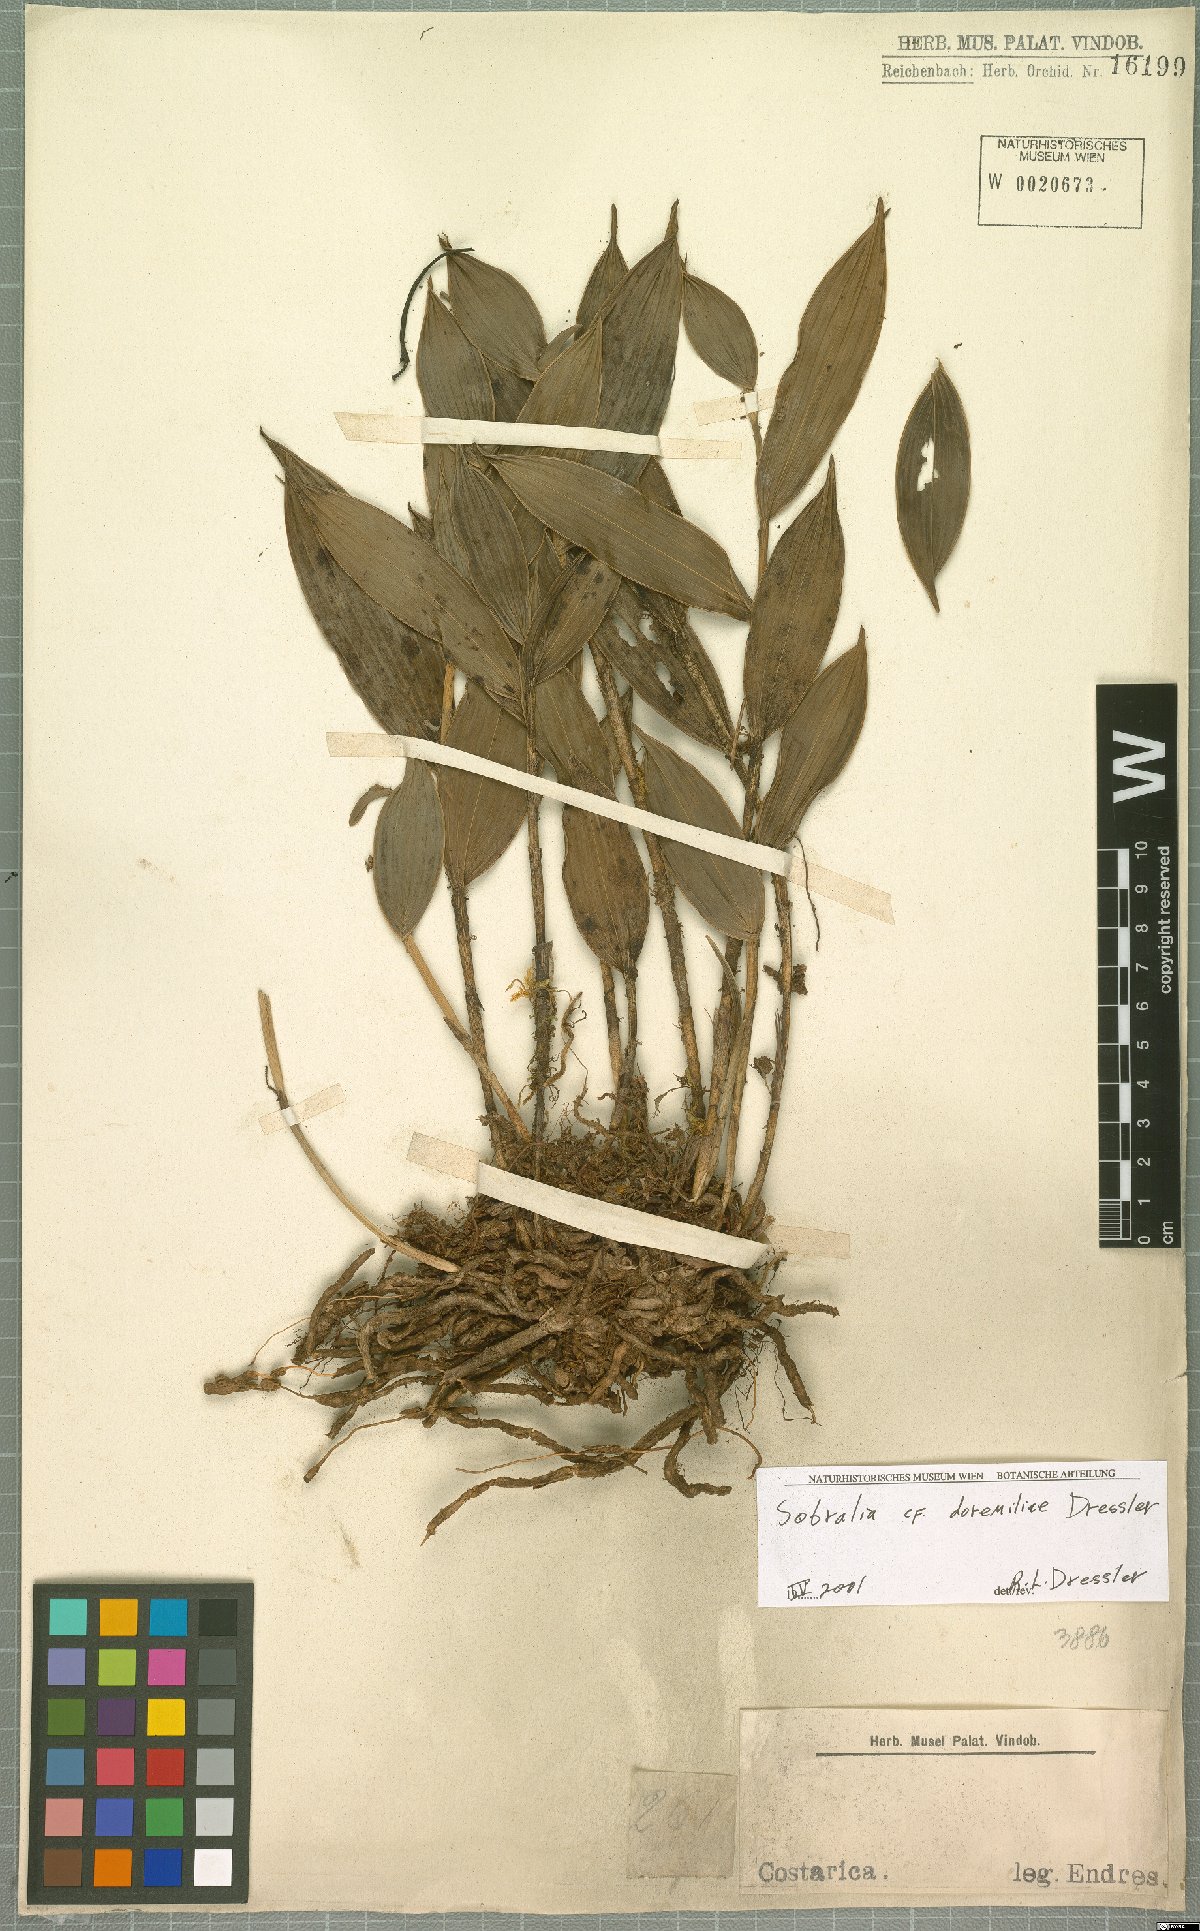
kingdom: Plantae
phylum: Tracheophyta
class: Liliopsida
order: Asparagales
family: Orchidaceae
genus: Sobralia
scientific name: Sobralia doremiliae
